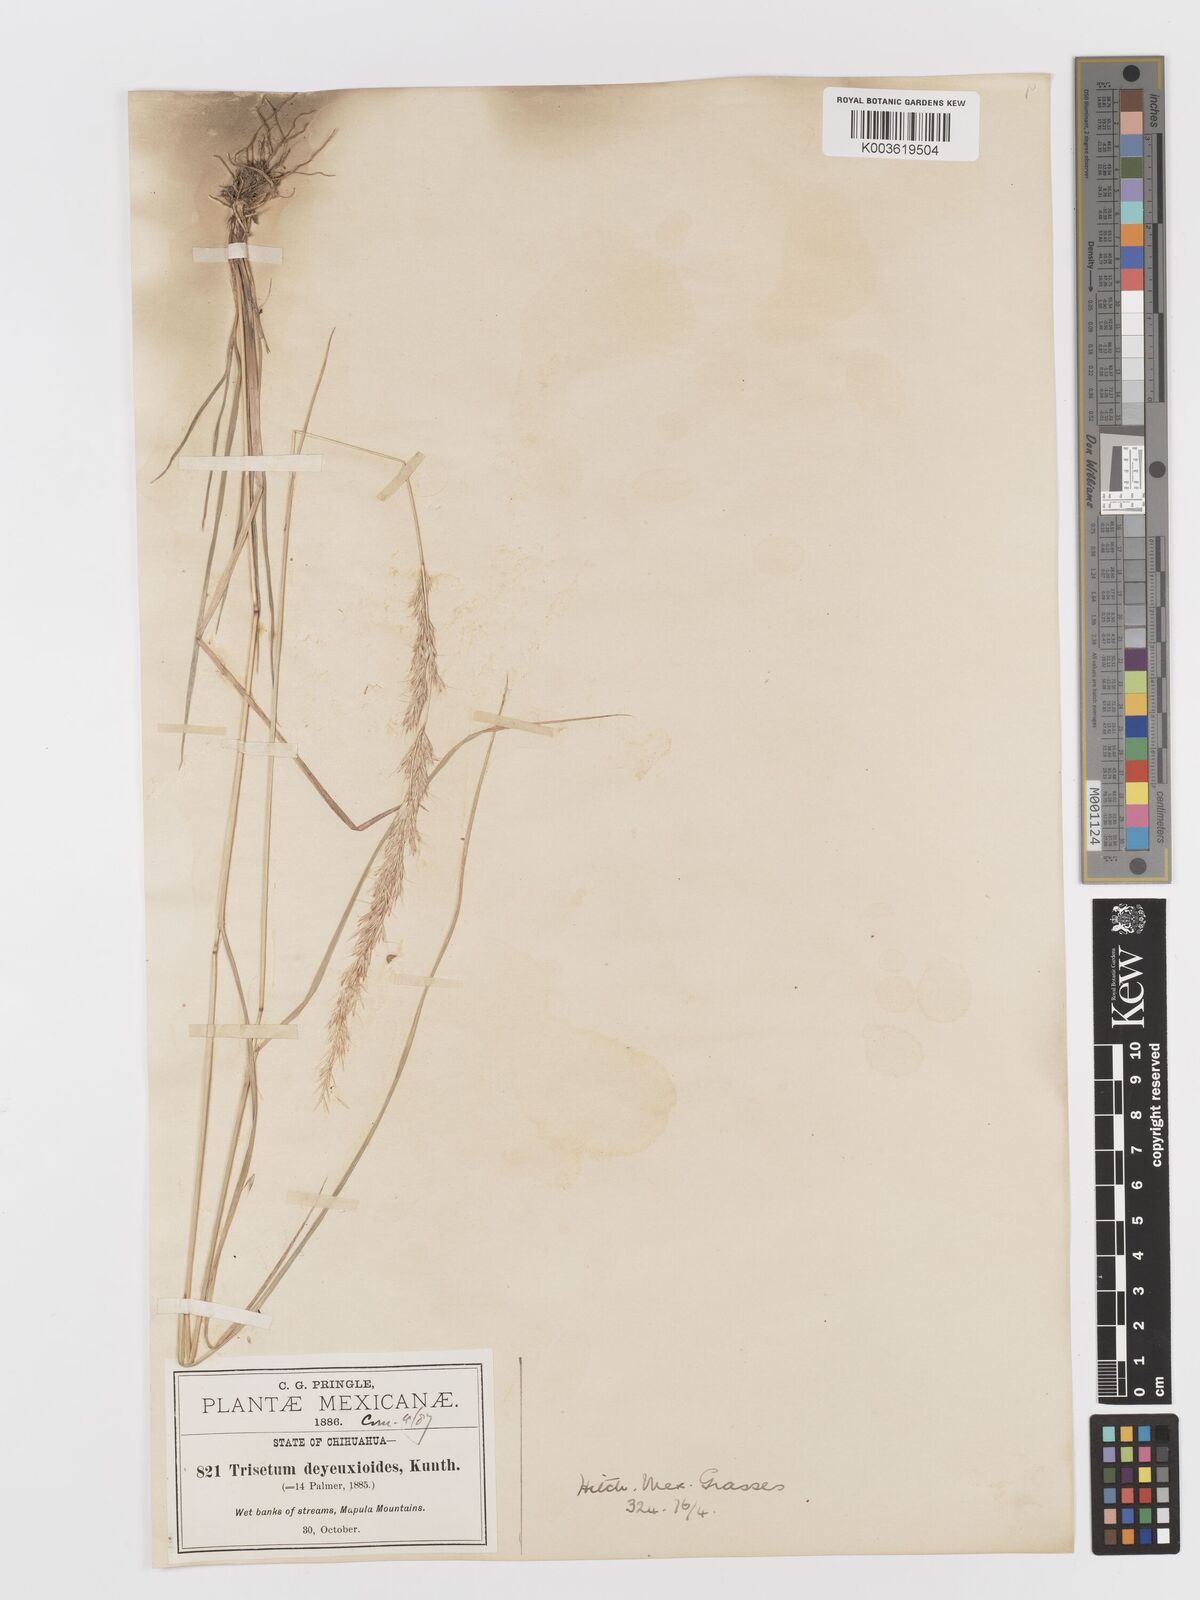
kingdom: Plantae
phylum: Tracheophyta
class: Liliopsida
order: Poales
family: Poaceae
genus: Peyritschia
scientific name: Peyritschia deyeuxioides
